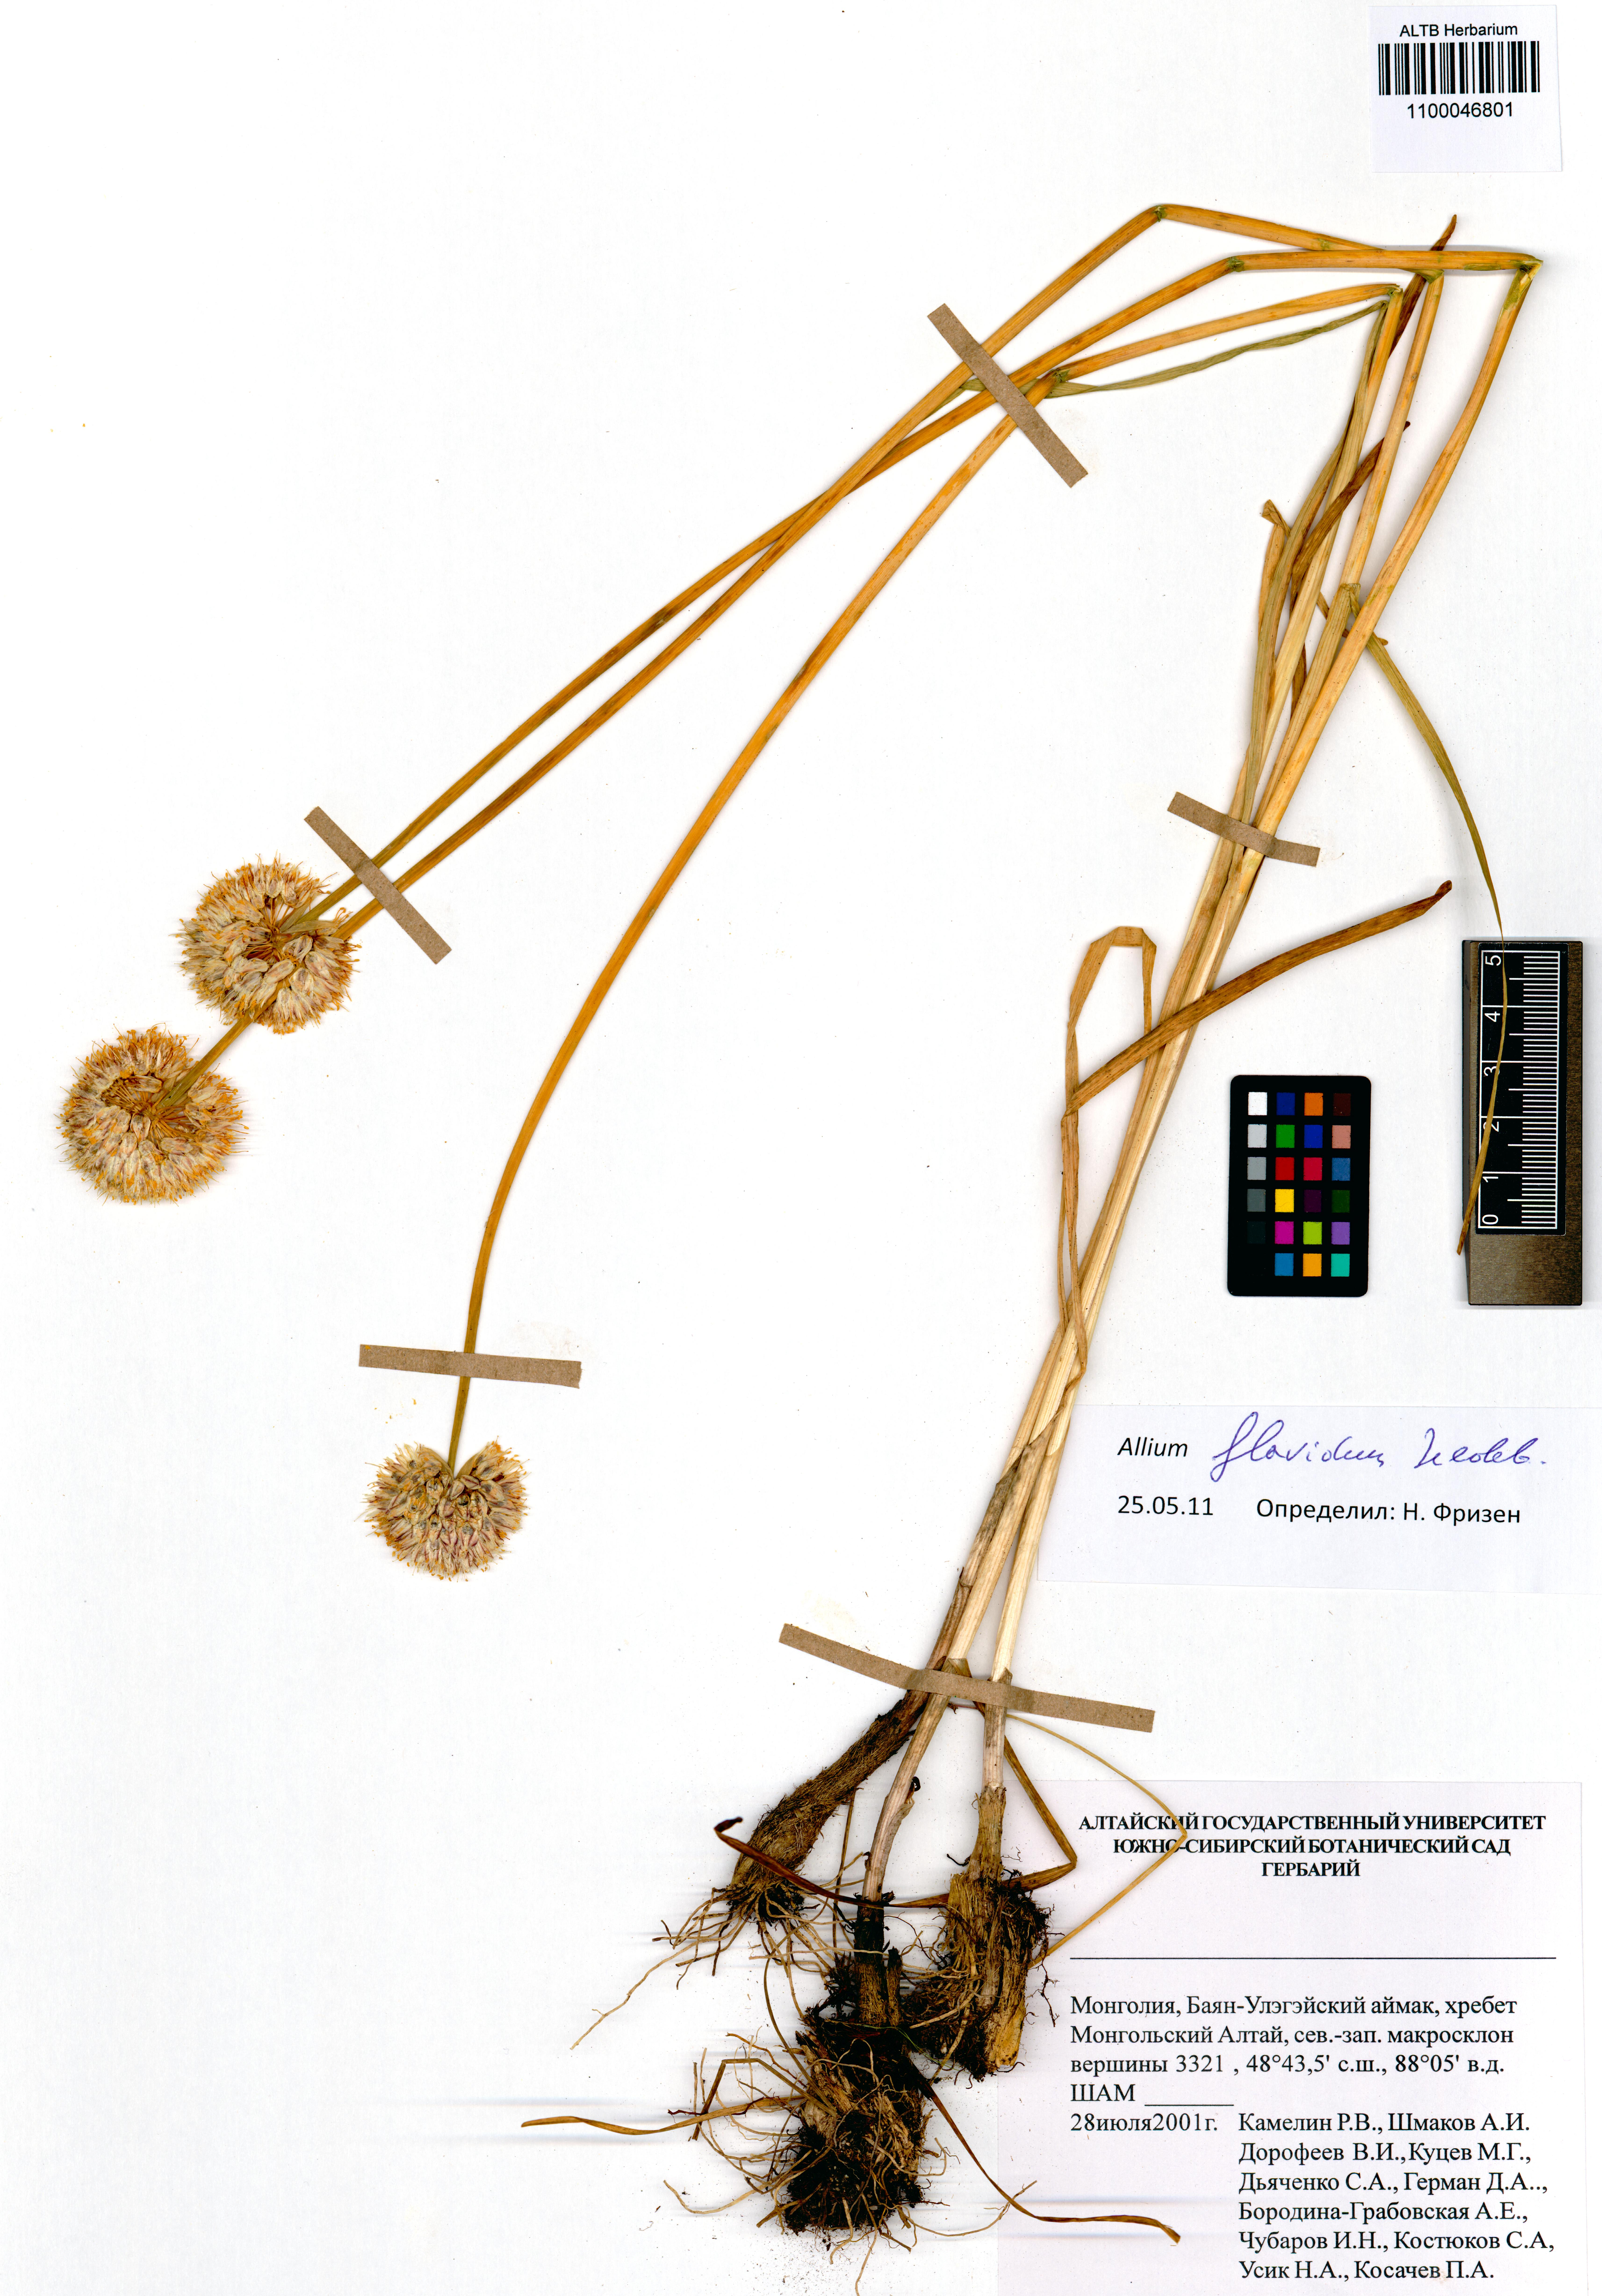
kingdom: Plantae
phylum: Tracheophyta
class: Liliopsida
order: Asparagales
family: Amaryllidaceae
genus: Allium
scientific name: Allium flavidum
